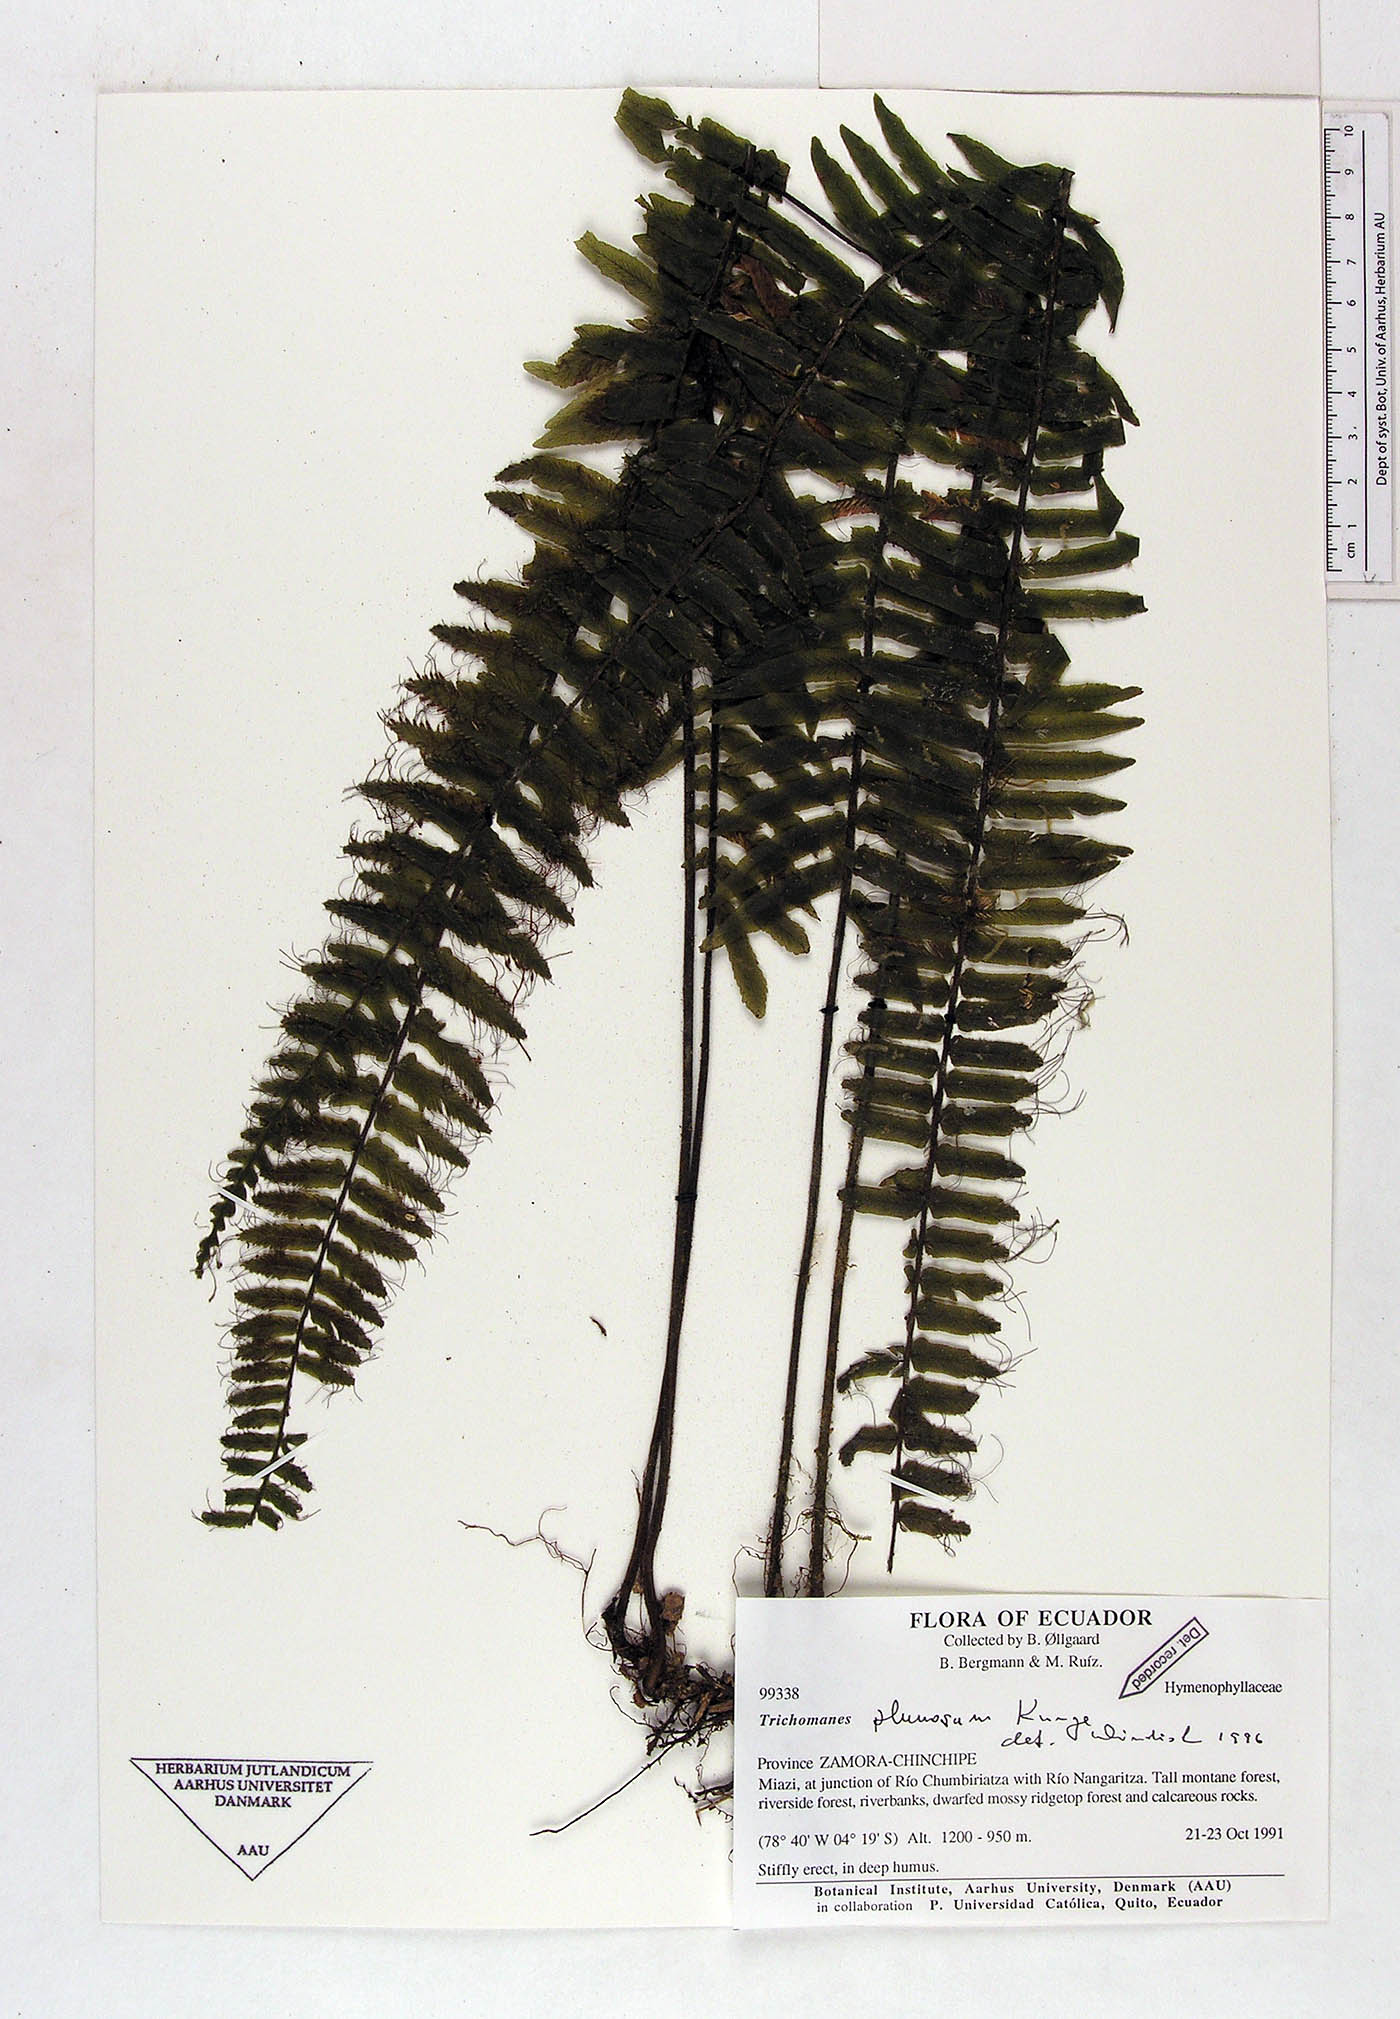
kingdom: Plantae
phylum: Tracheophyta
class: Polypodiopsida
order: Hymenophyllales
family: Hymenophyllaceae
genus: Trichomanes
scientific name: Trichomanes plumosum
